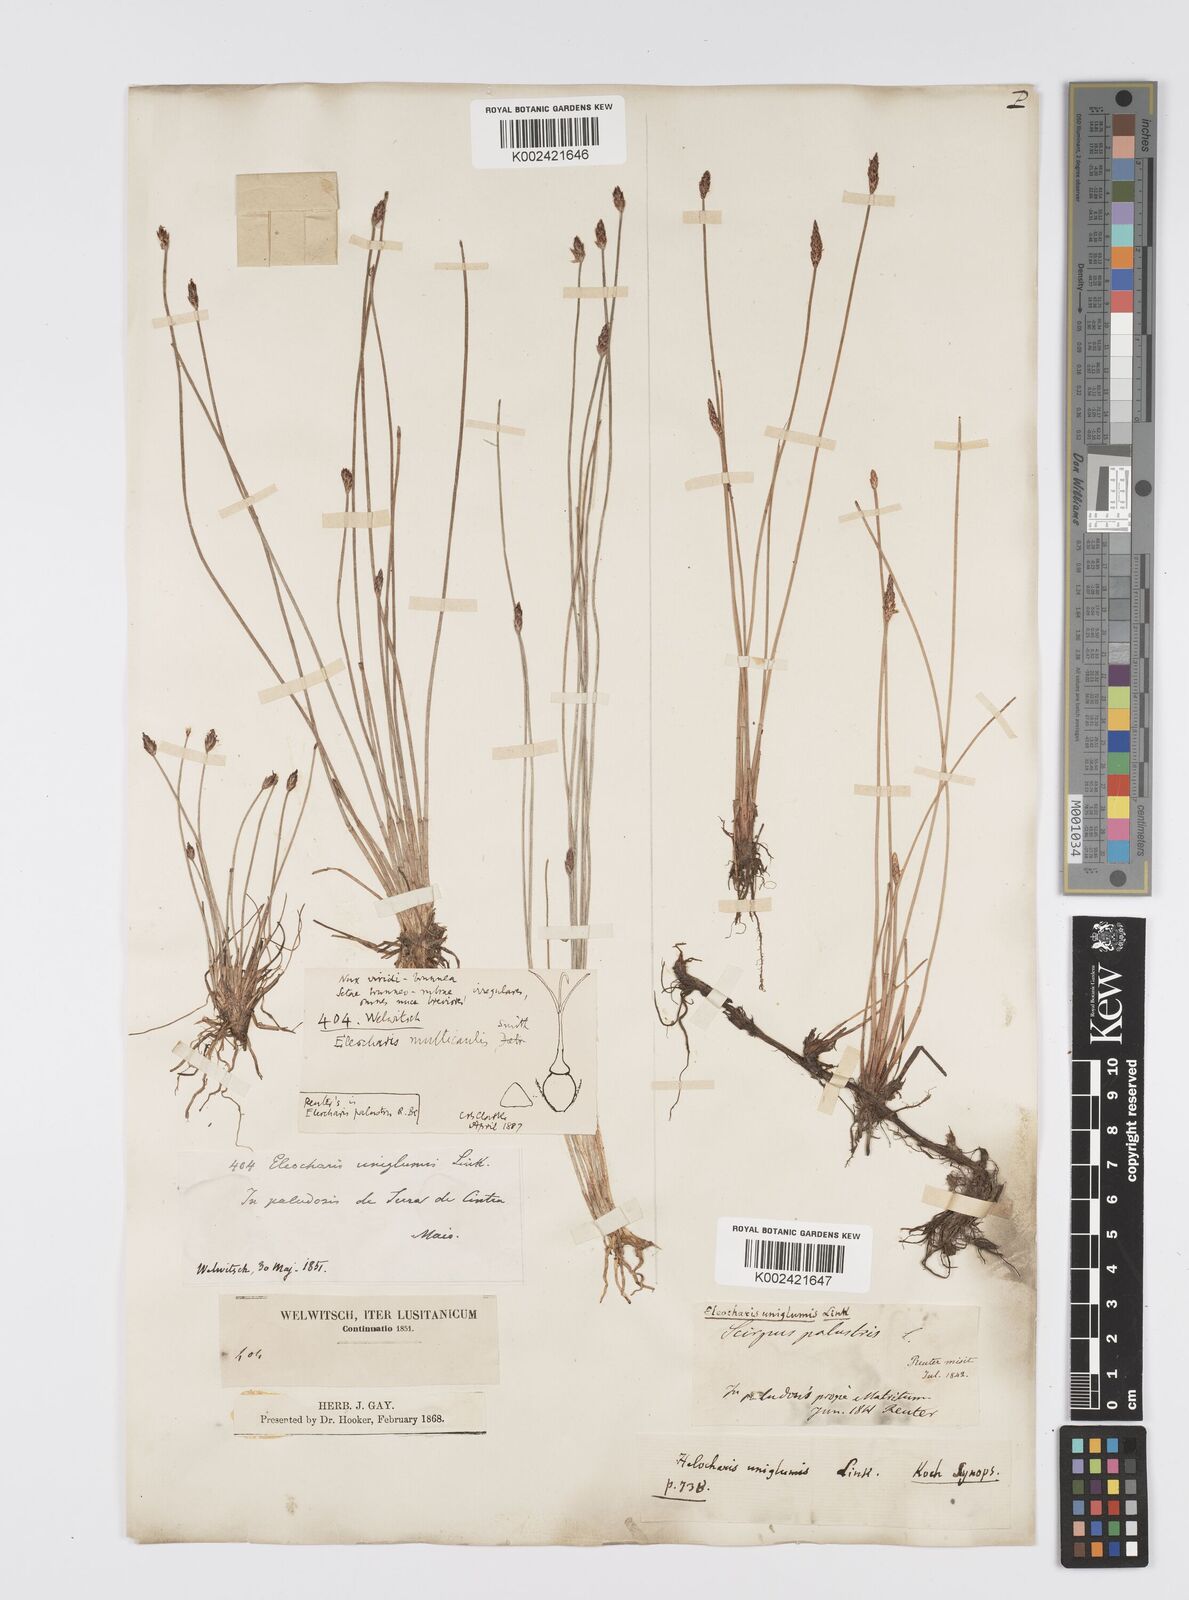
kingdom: Plantae
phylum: Tracheophyta
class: Liliopsida
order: Poales
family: Cyperaceae
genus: Eleocharis
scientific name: Eleocharis multicaulis
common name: Many-stalked spike-rush
